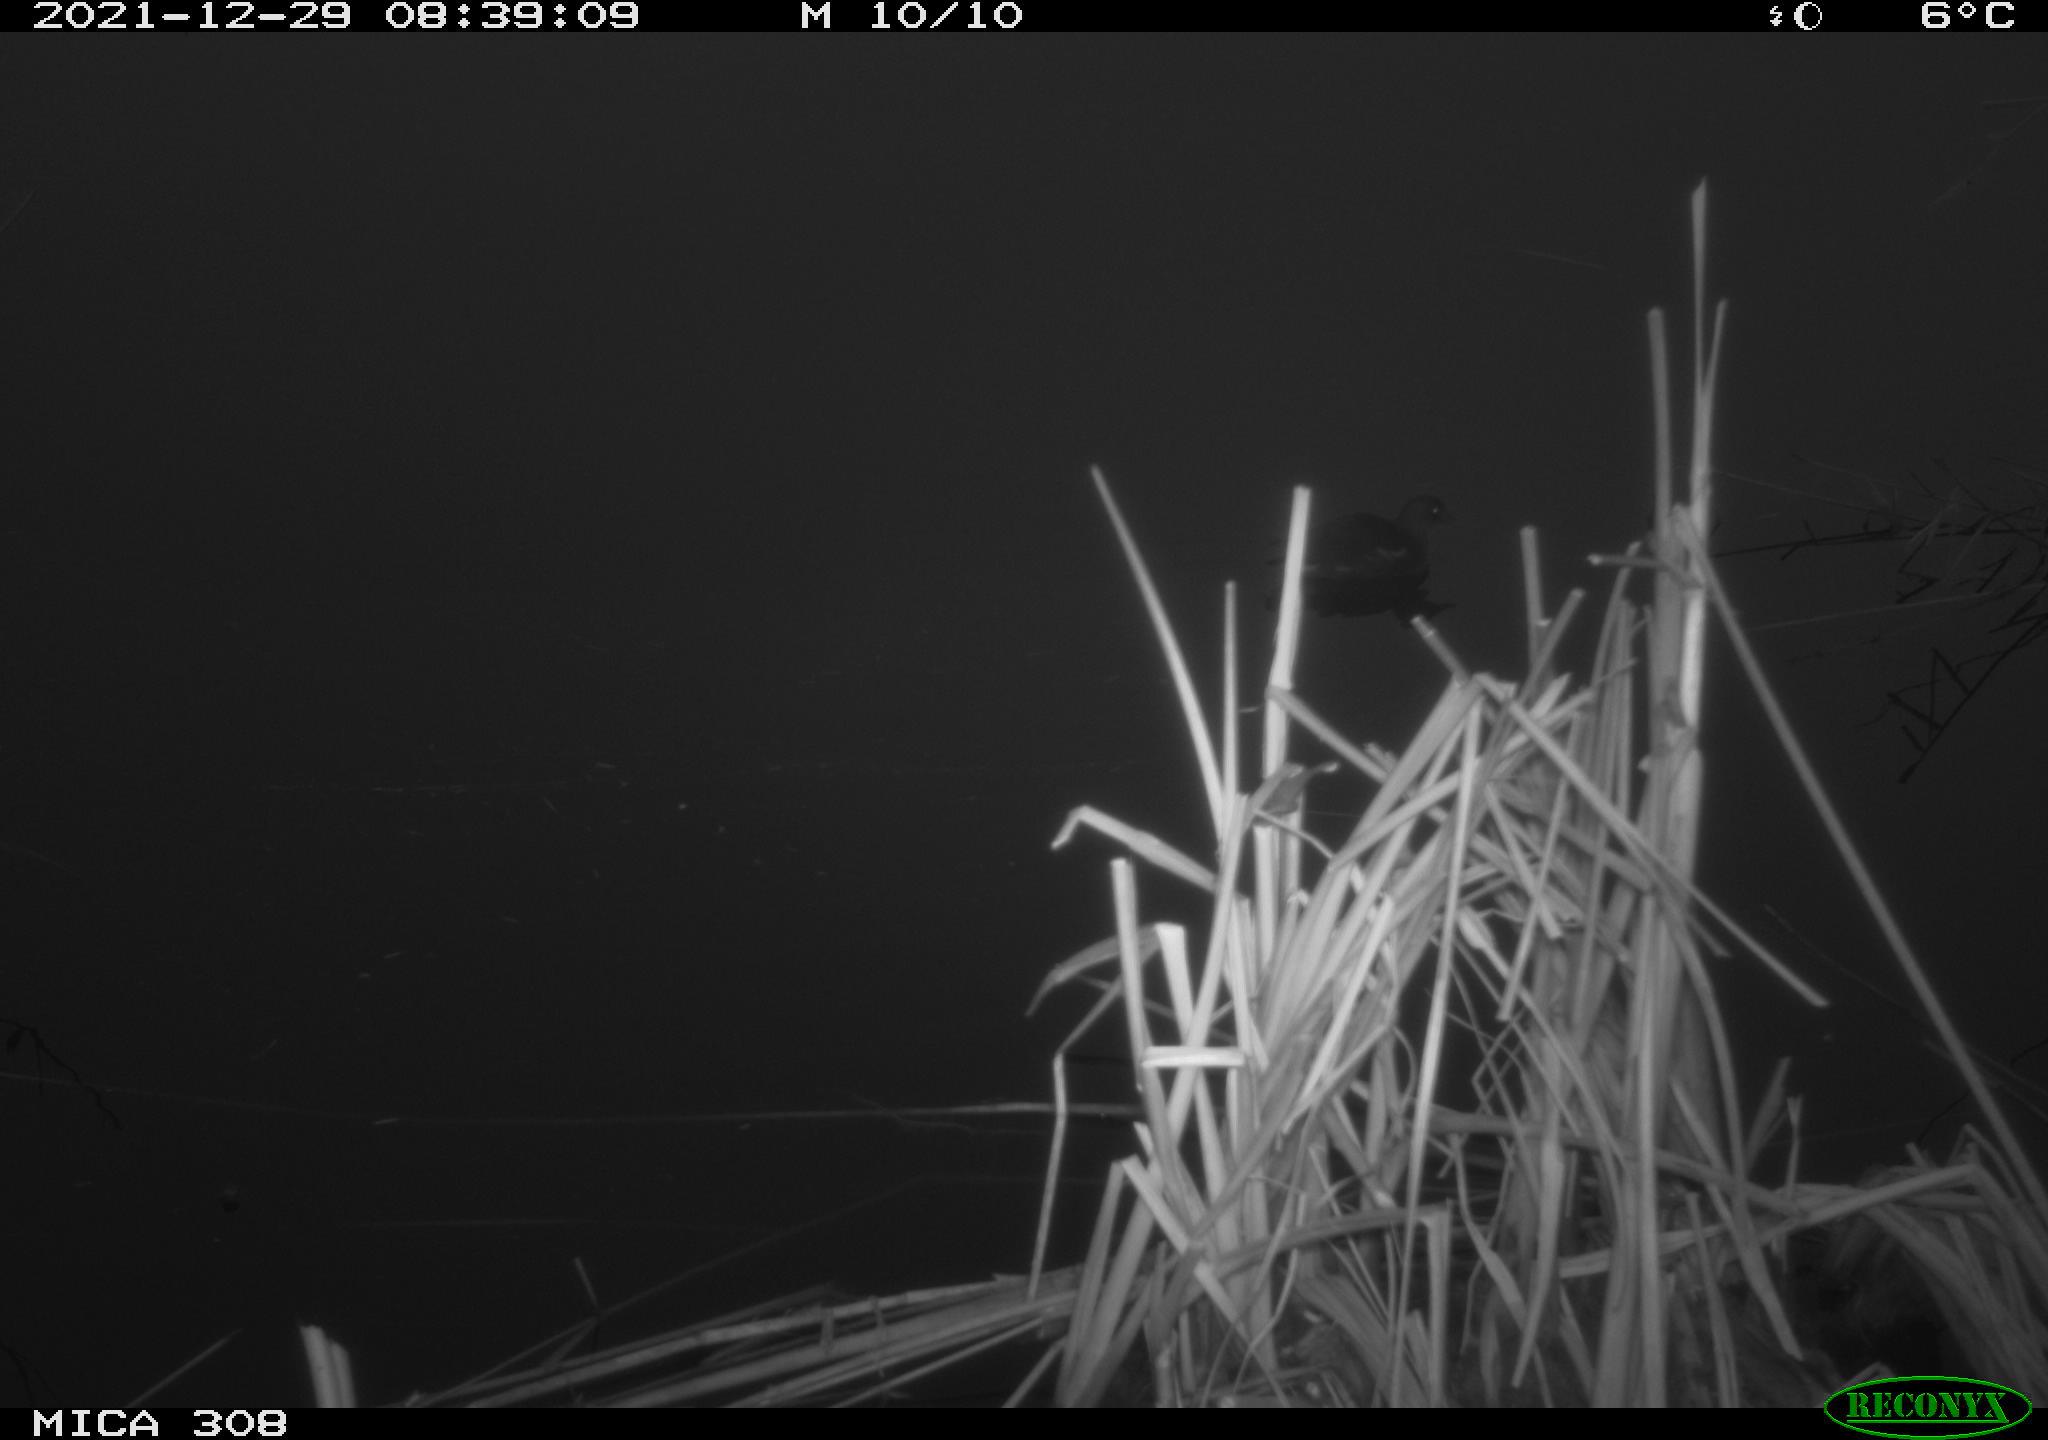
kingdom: Animalia
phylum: Chordata
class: Aves
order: Gruiformes
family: Rallidae
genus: Gallinula
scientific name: Gallinula chloropus
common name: Common moorhen
